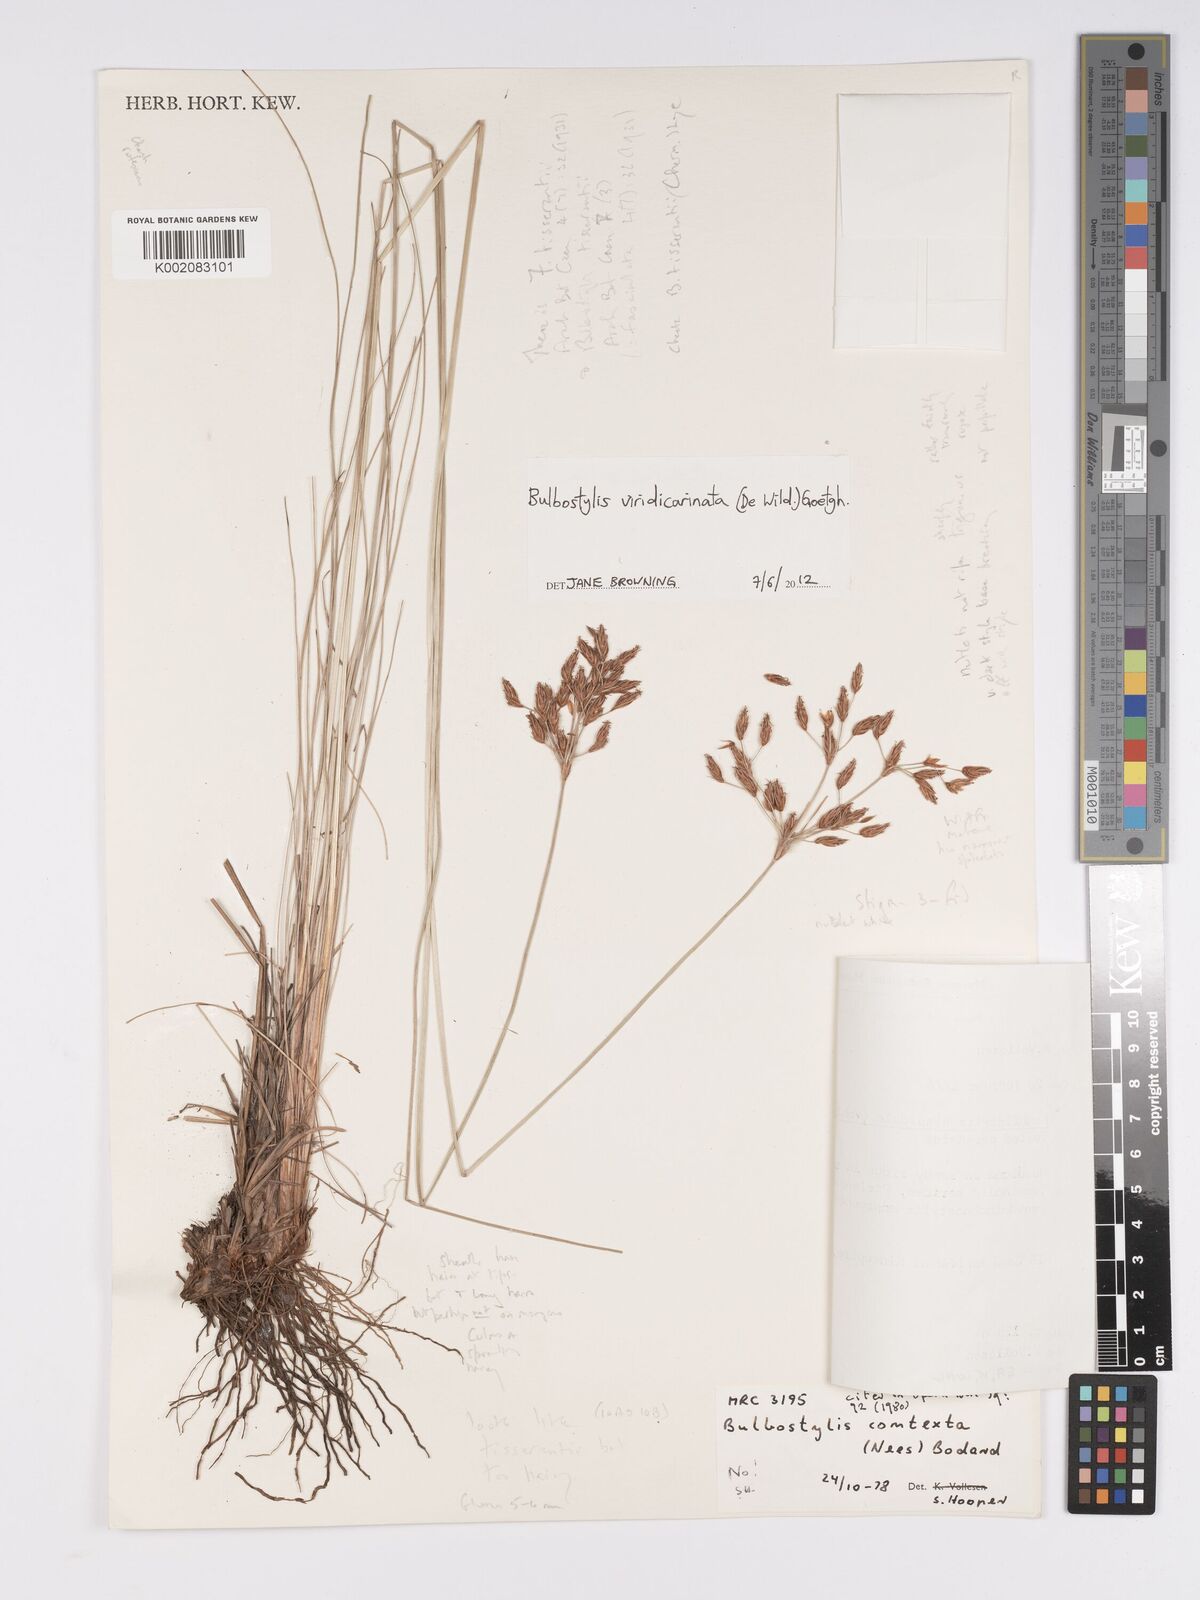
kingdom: Plantae
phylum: Tracheophyta
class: Liliopsida
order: Poales
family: Cyperaceae
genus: Bulbostylis
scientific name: Bulbostylis viridecarinata
